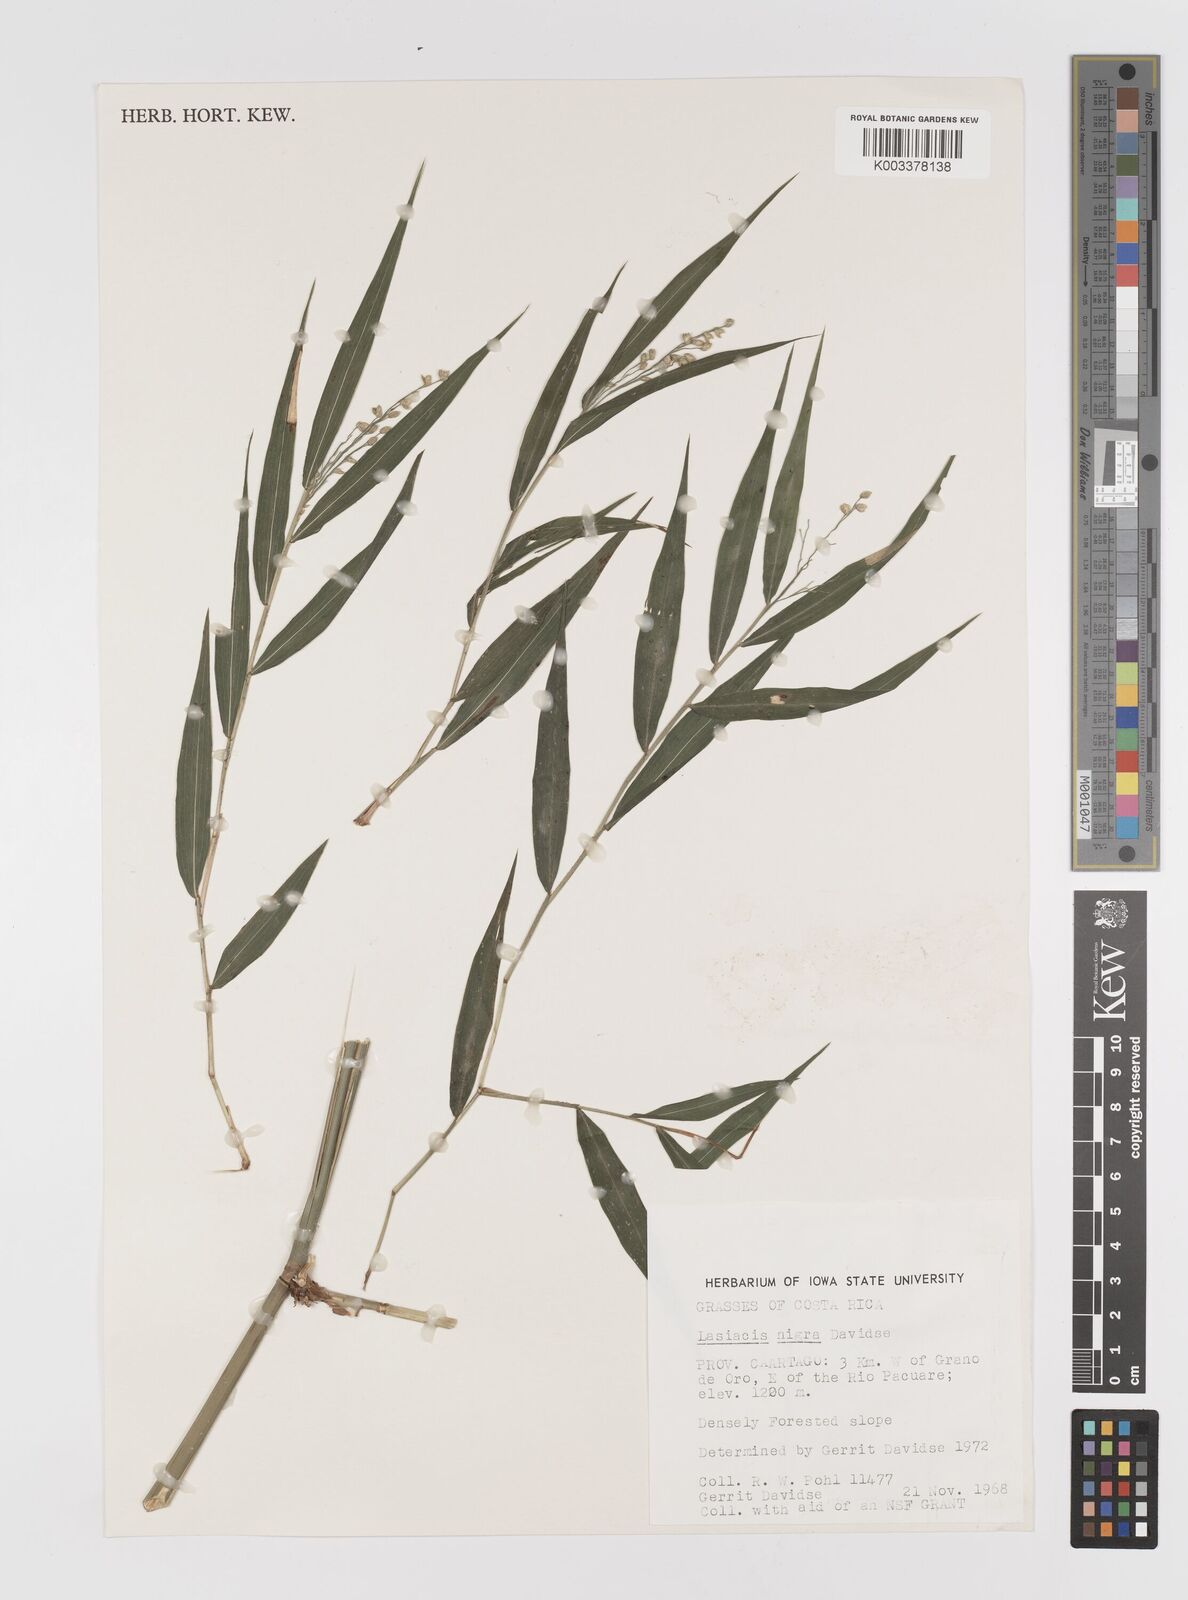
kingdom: Plantae
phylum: Tracheophyta
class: Liliopsida
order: Poales
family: Poaceae
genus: Lasiacis
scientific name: Lasiacis nigra
